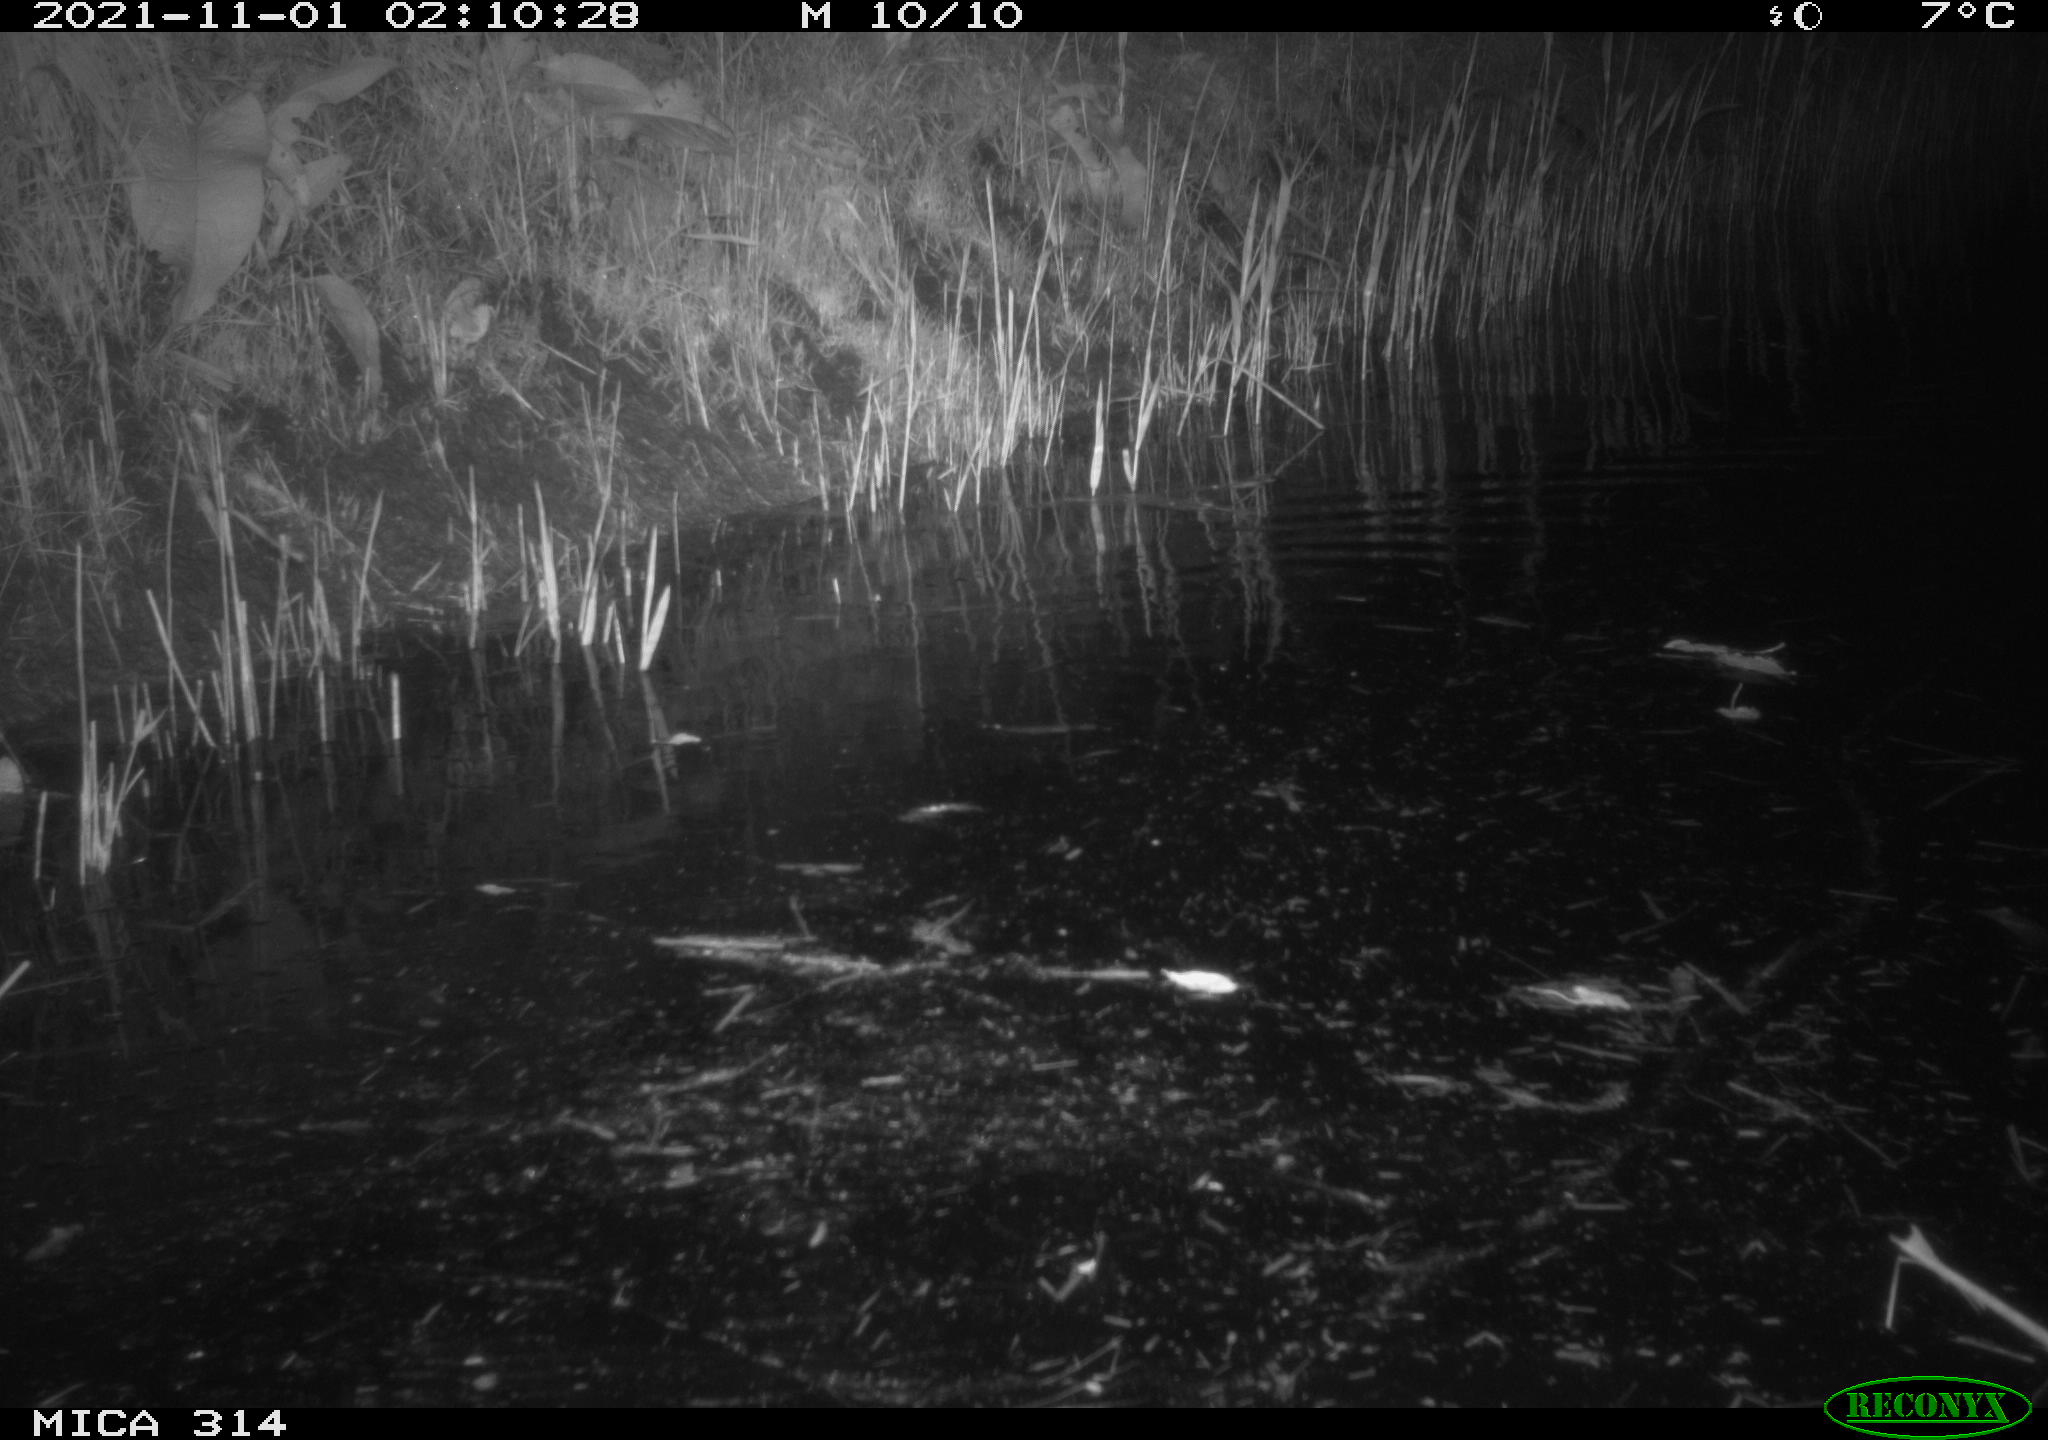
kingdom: Animalia
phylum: Chordata
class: Mammalia
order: Rodentia
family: Muridae
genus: Rattus
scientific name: Rattus norvegicus
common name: Brown rat
